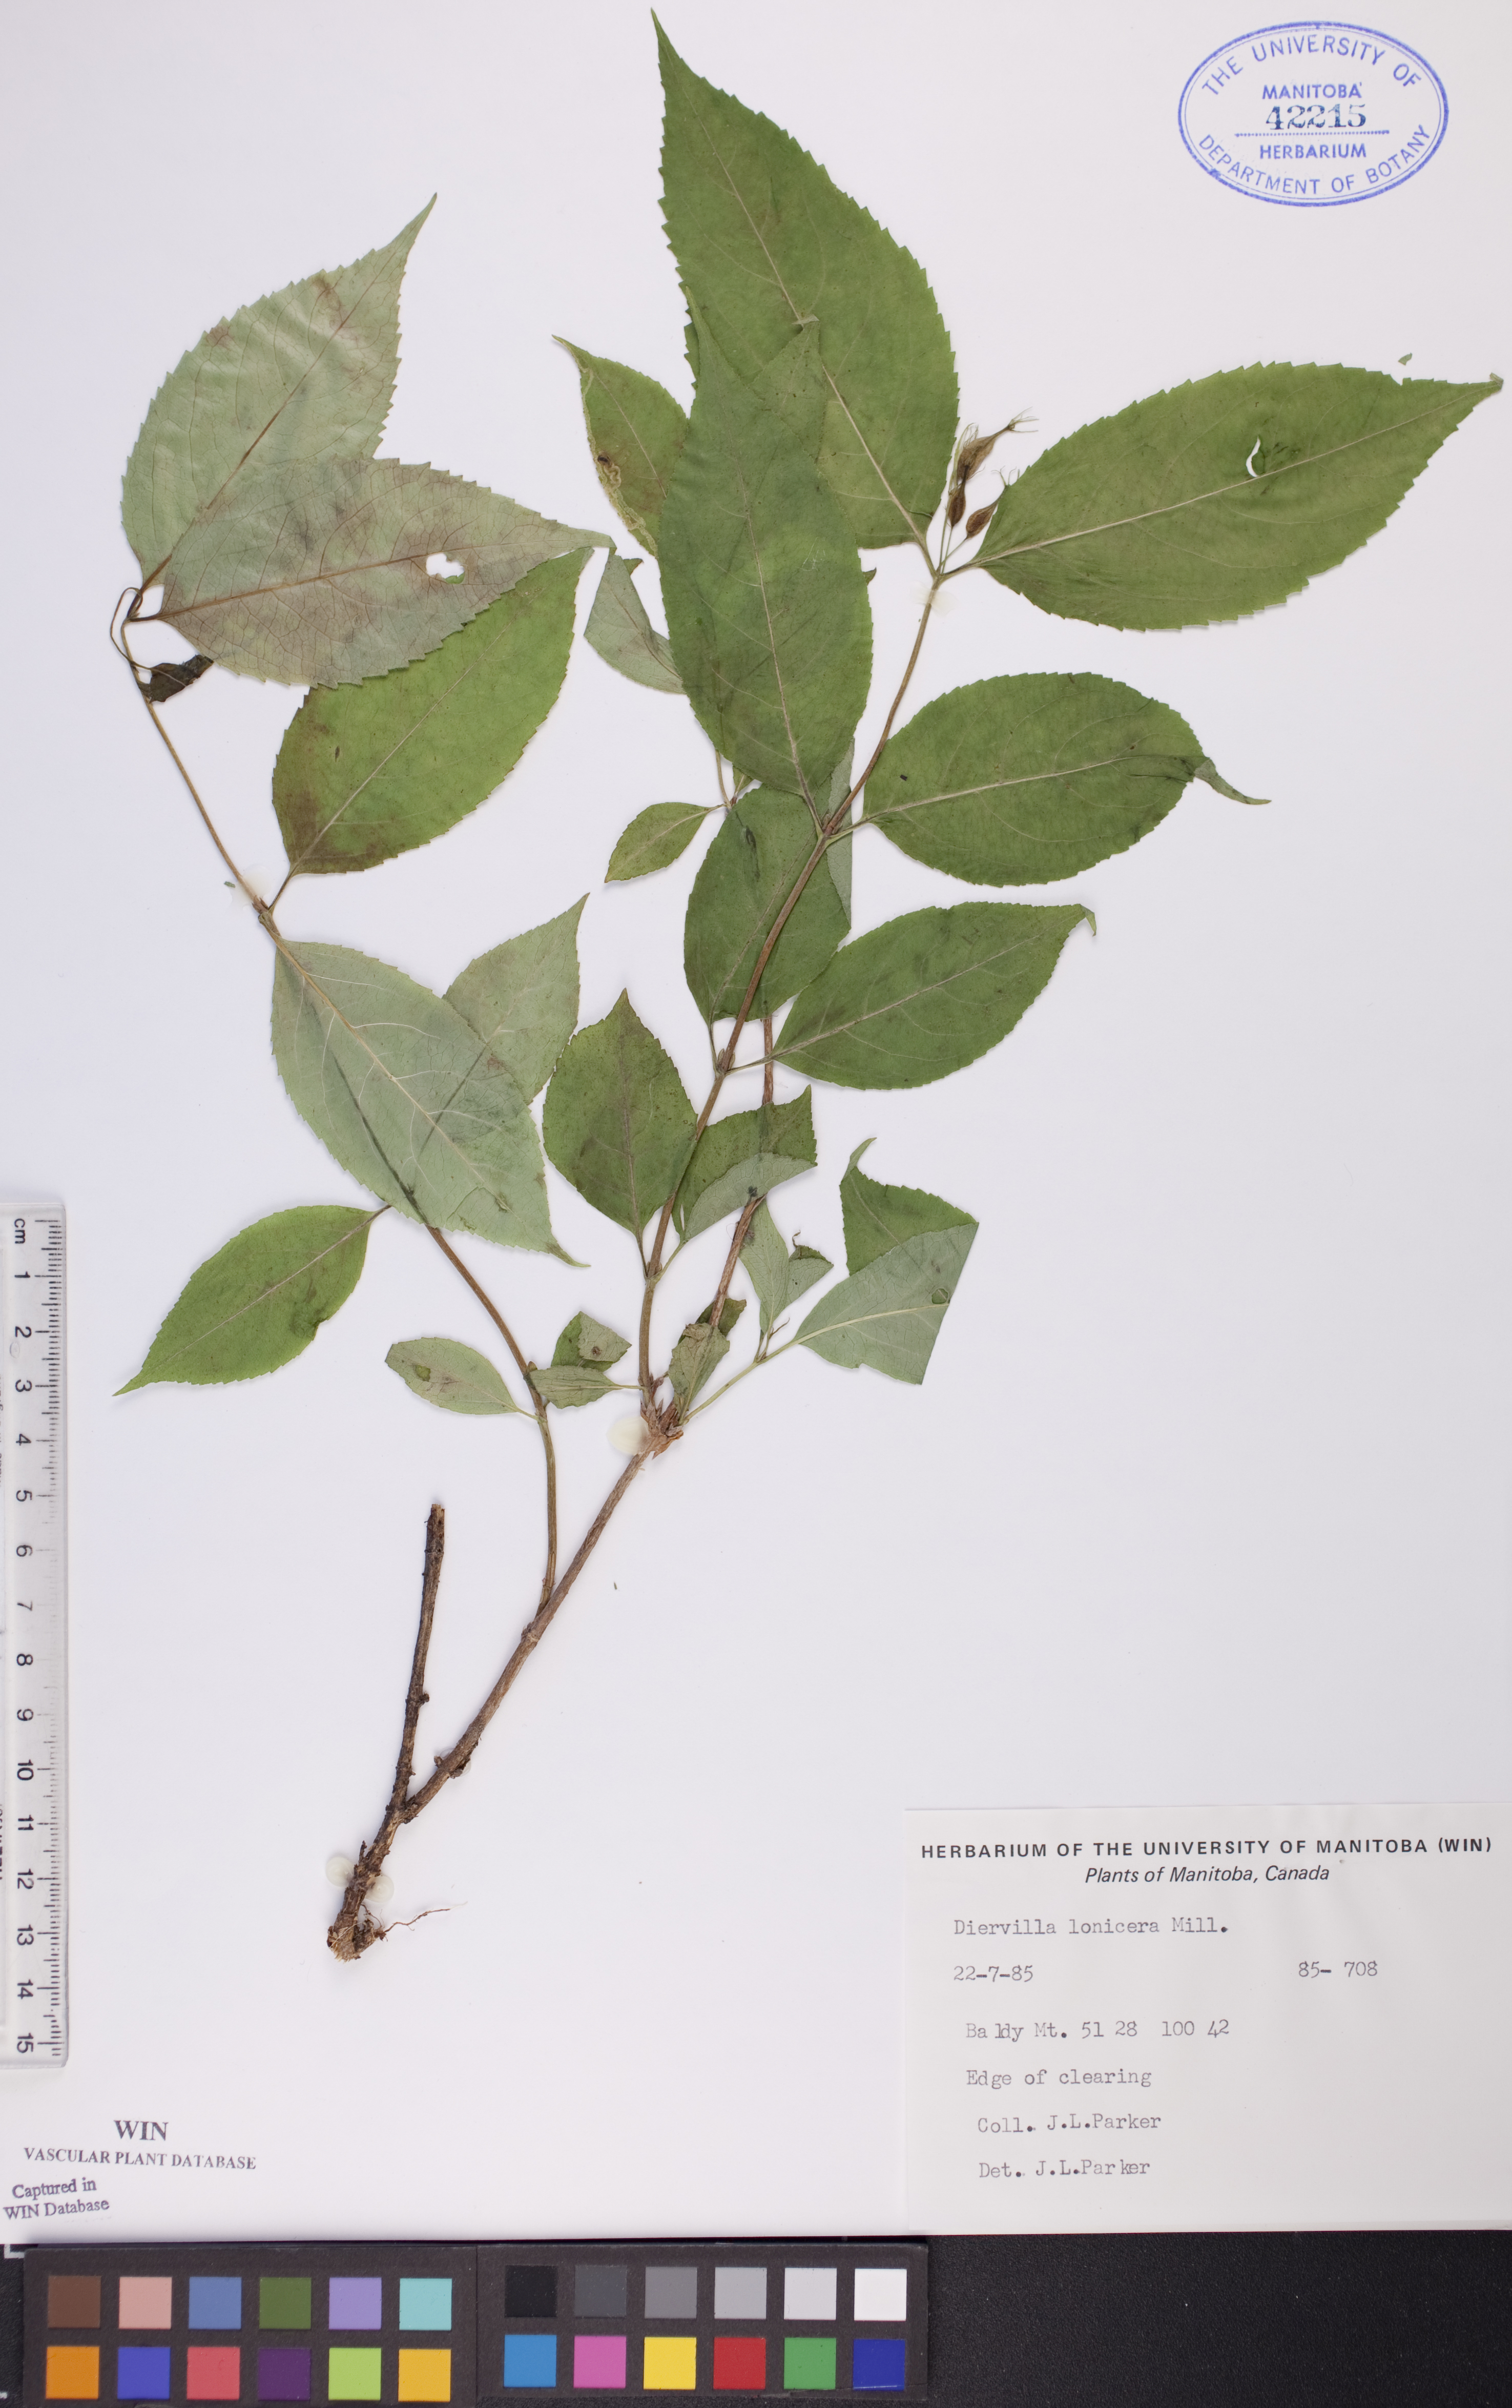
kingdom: Plantae
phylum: Tracheophyta
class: Magnoliopsida
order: Dipsacales
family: Caprifoliaceae
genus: Diervilla
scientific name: Diervilla lonicera
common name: Bush-honeysuckle
